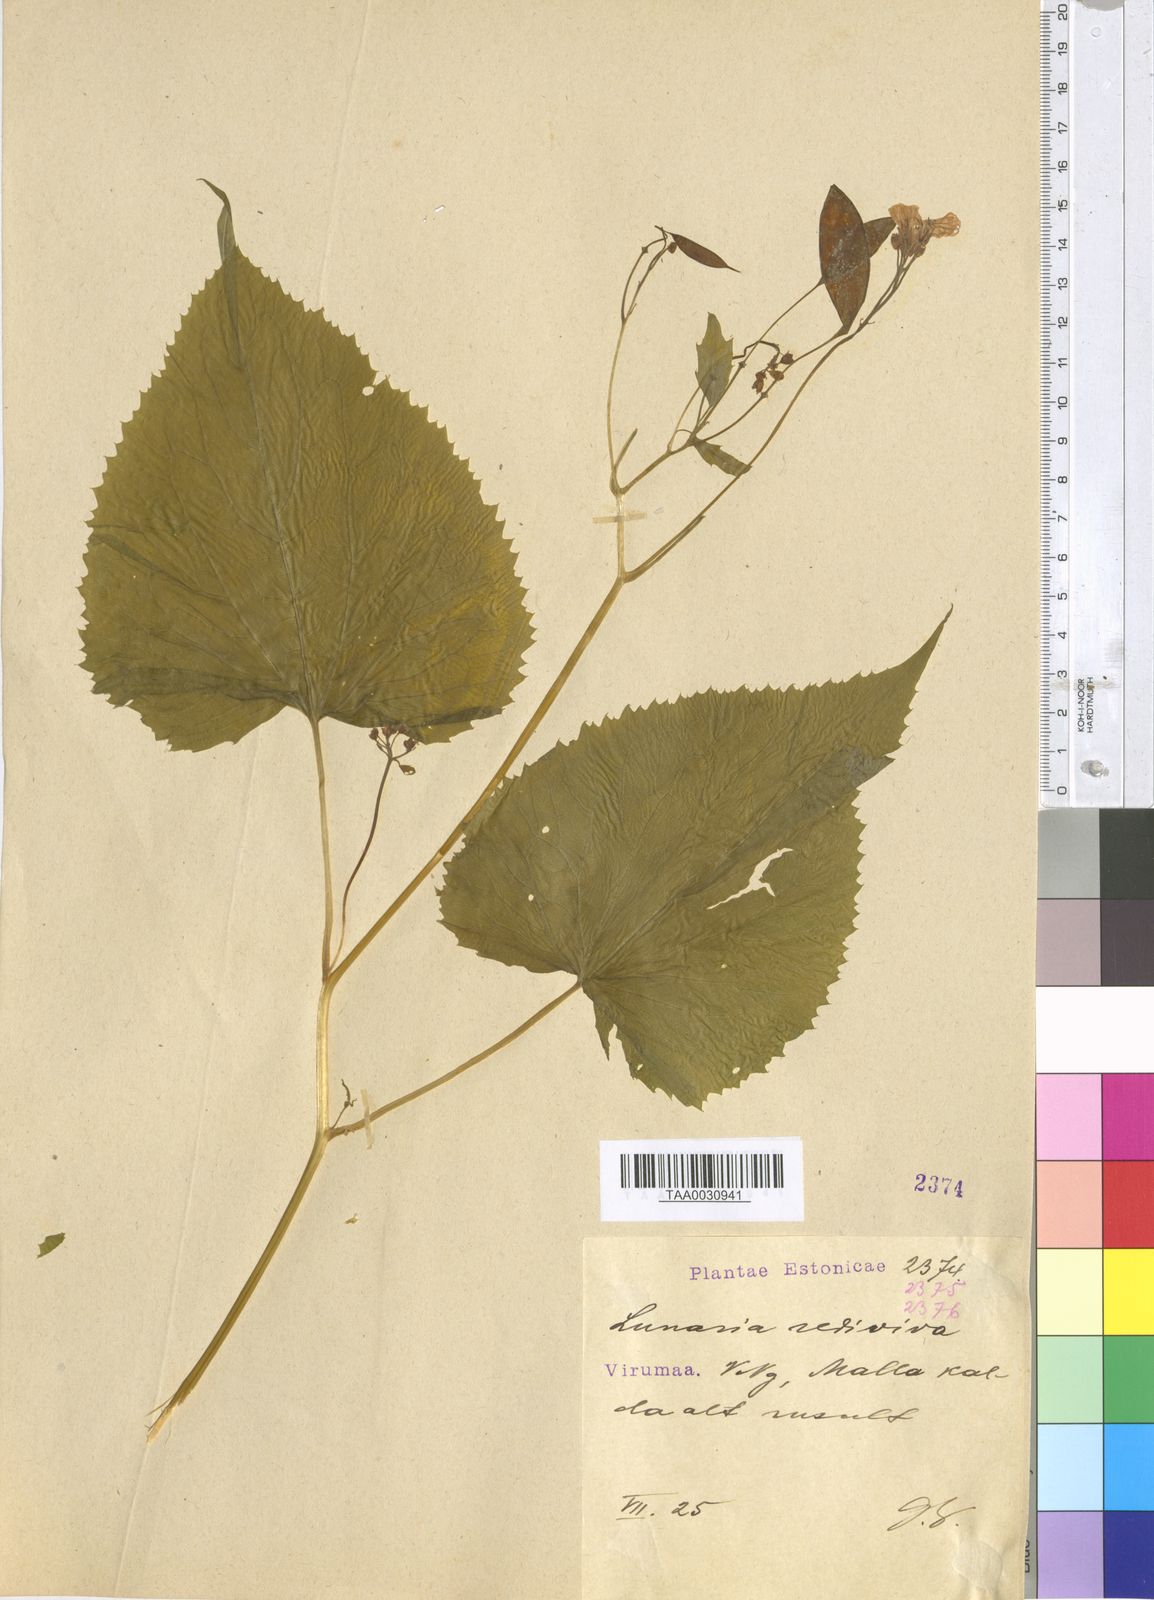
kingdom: Plantae
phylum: Tracheophyta
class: Magnoliopsida
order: Brassicales
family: Brassicaceae
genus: Lunaria
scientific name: Lunaria rediviva
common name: Perennial honesty
